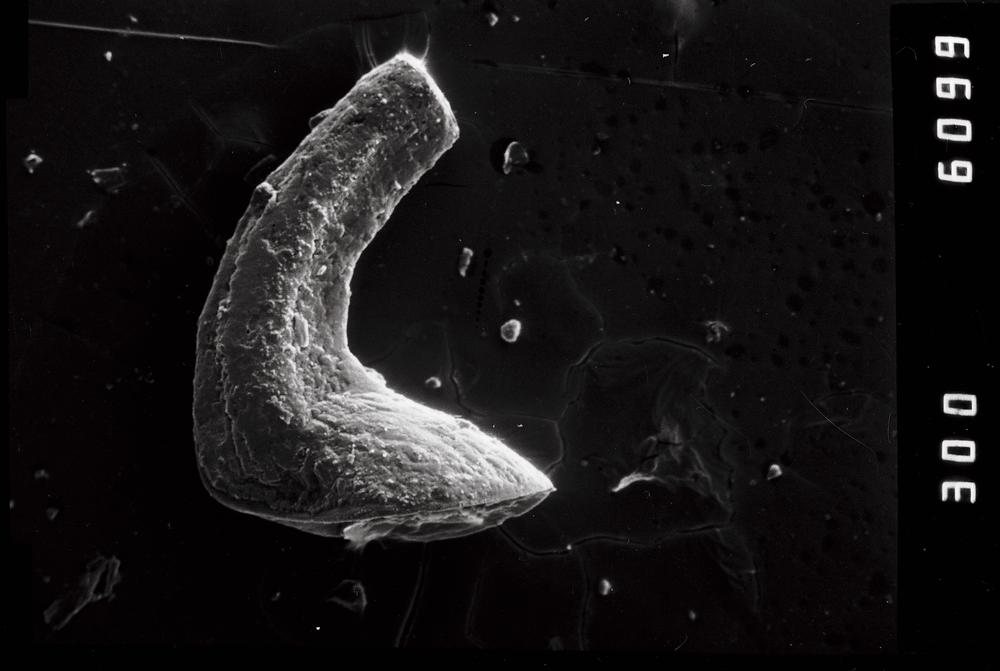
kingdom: Animalia
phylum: Chordata
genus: Paroistodus
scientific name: Paroistodus
